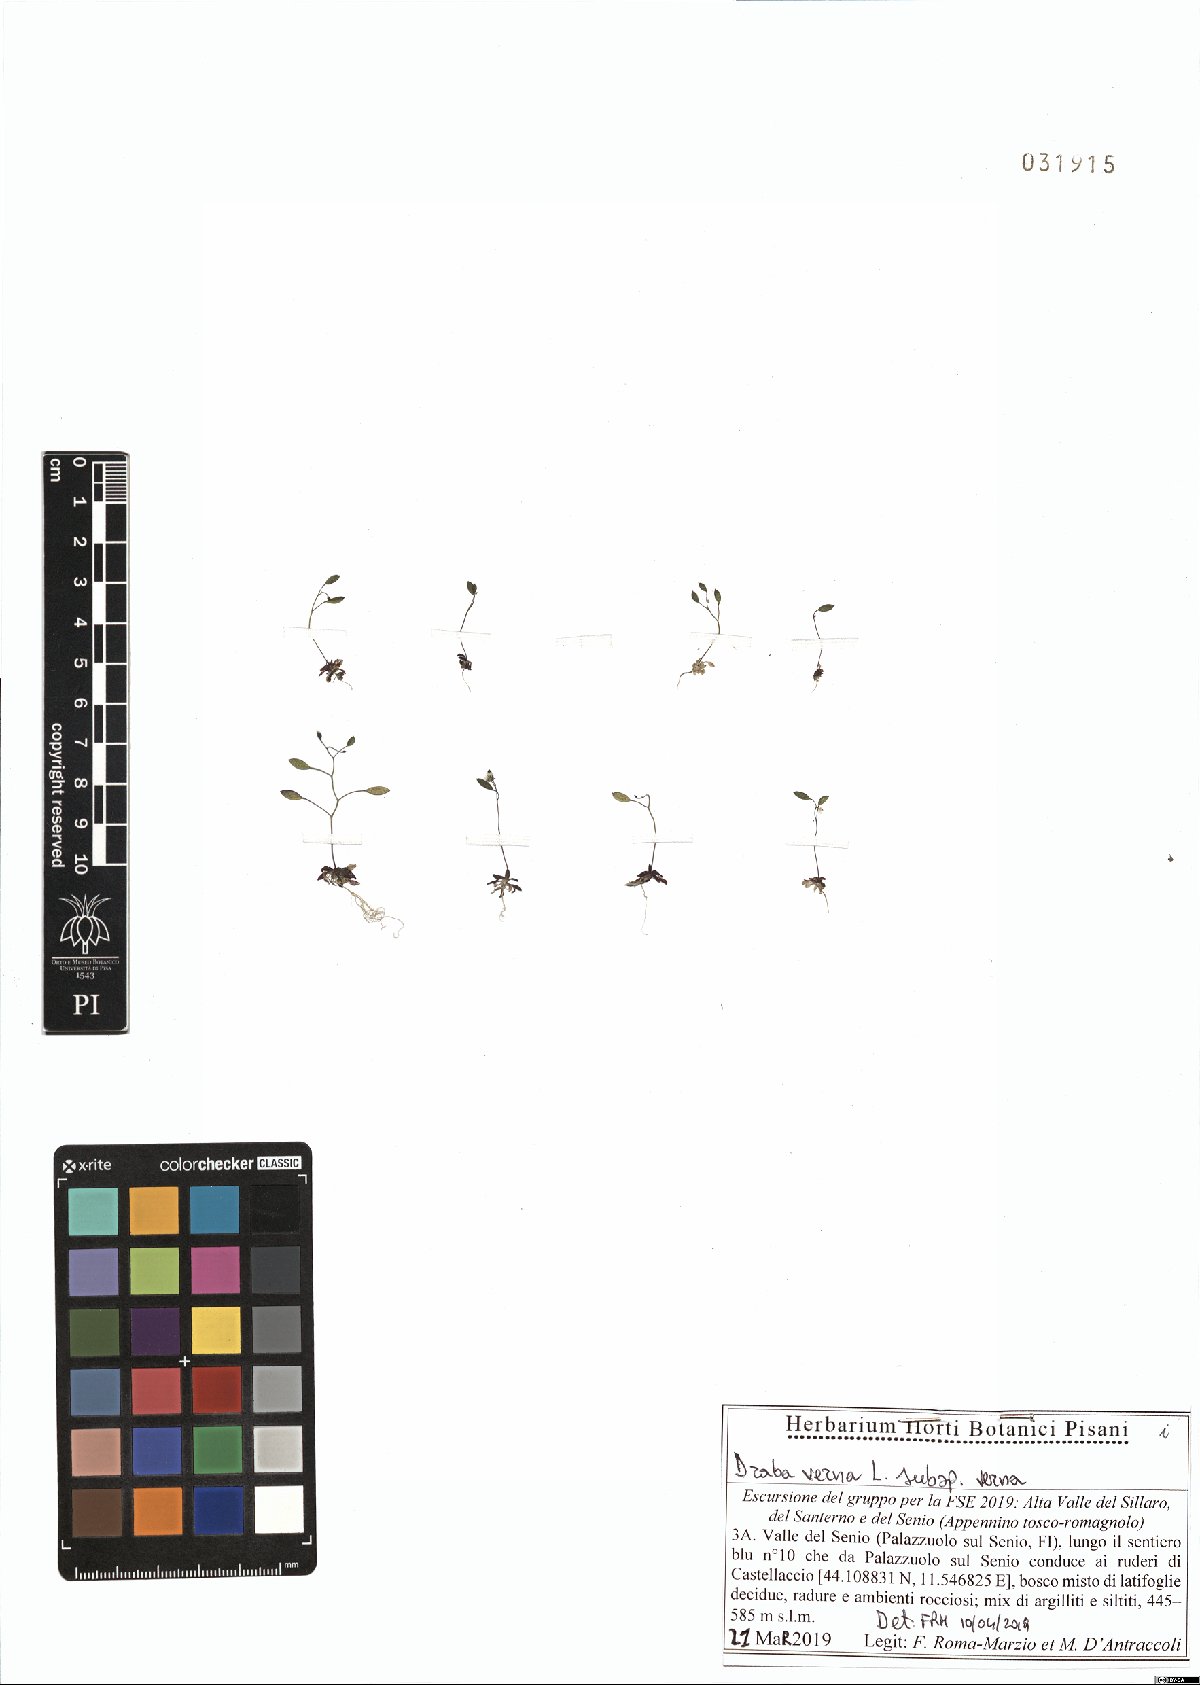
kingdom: Plantae
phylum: Tracheophyta
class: Magnoliopsida
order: Brassicales
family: Brassicaceae
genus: Draba
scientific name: Draba verna
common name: Spring draba
